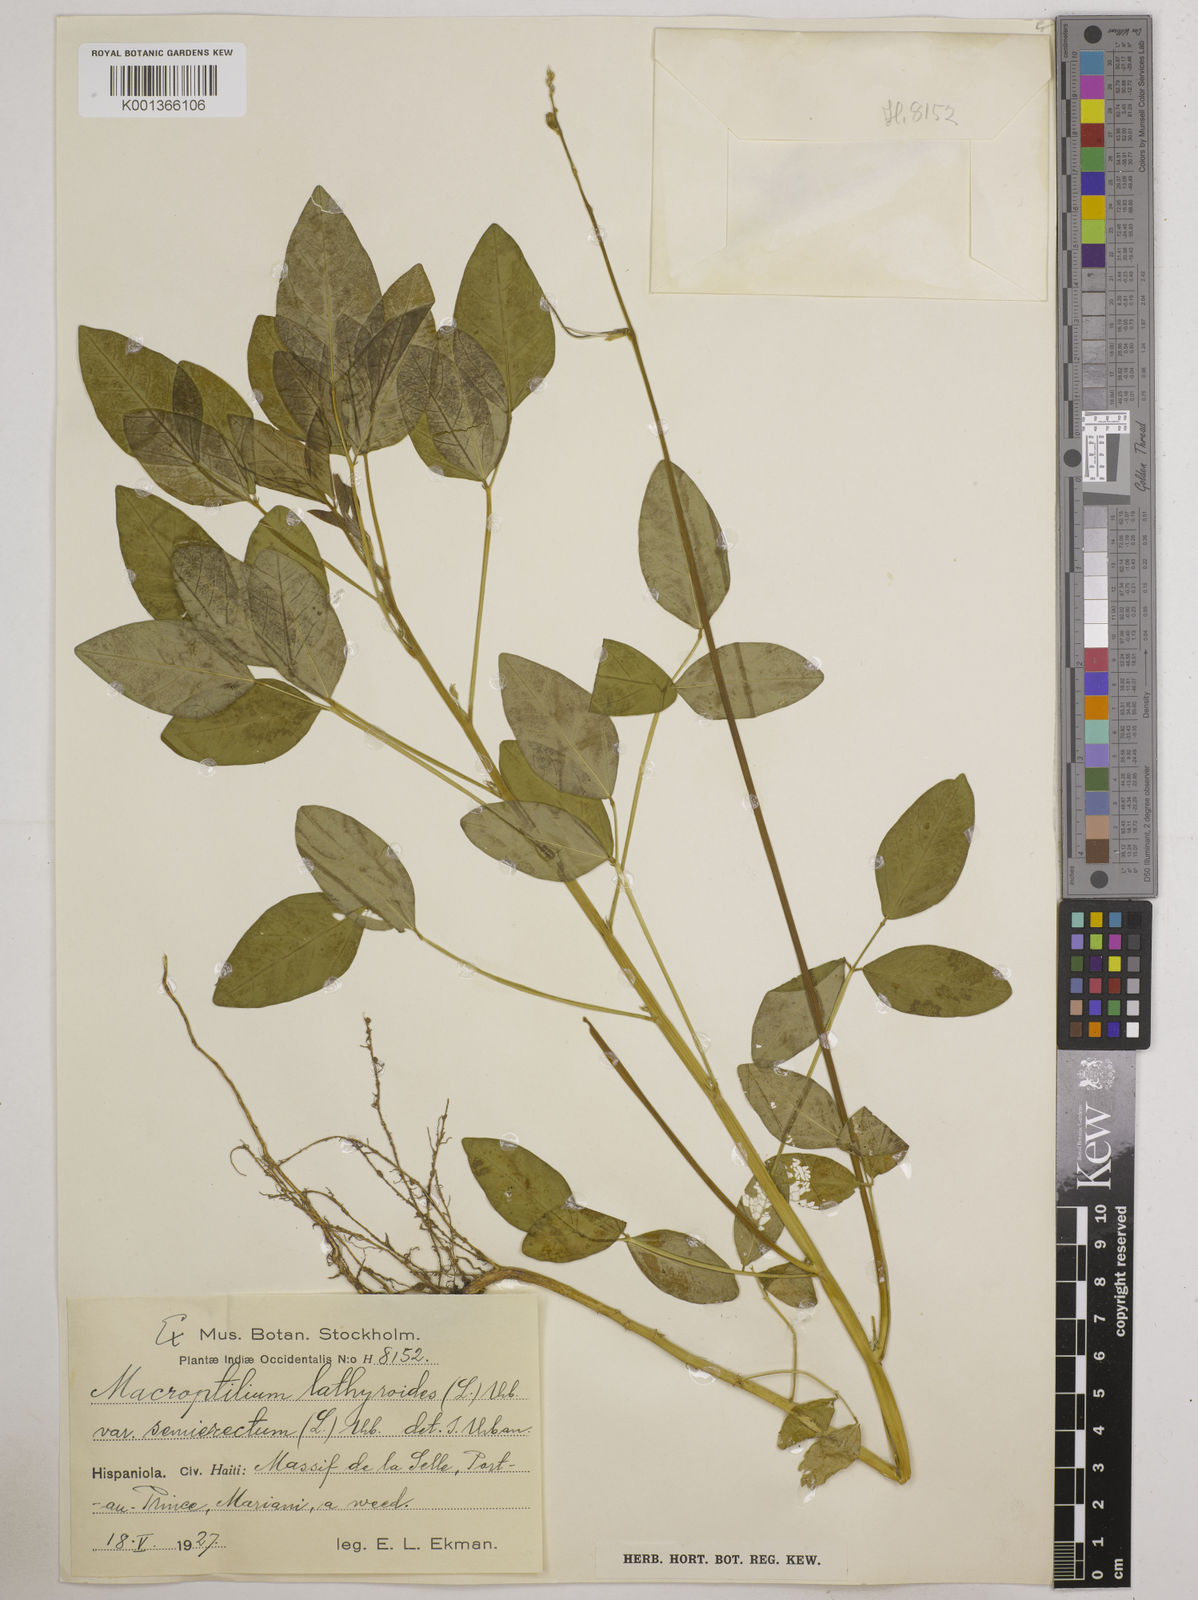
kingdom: Plantae
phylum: Tracheophyta
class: Magnoliopsida
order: Fabales
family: Fabaceae
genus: Macroptilium
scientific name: Macroptilium lathyroides
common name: Wild bushbean
